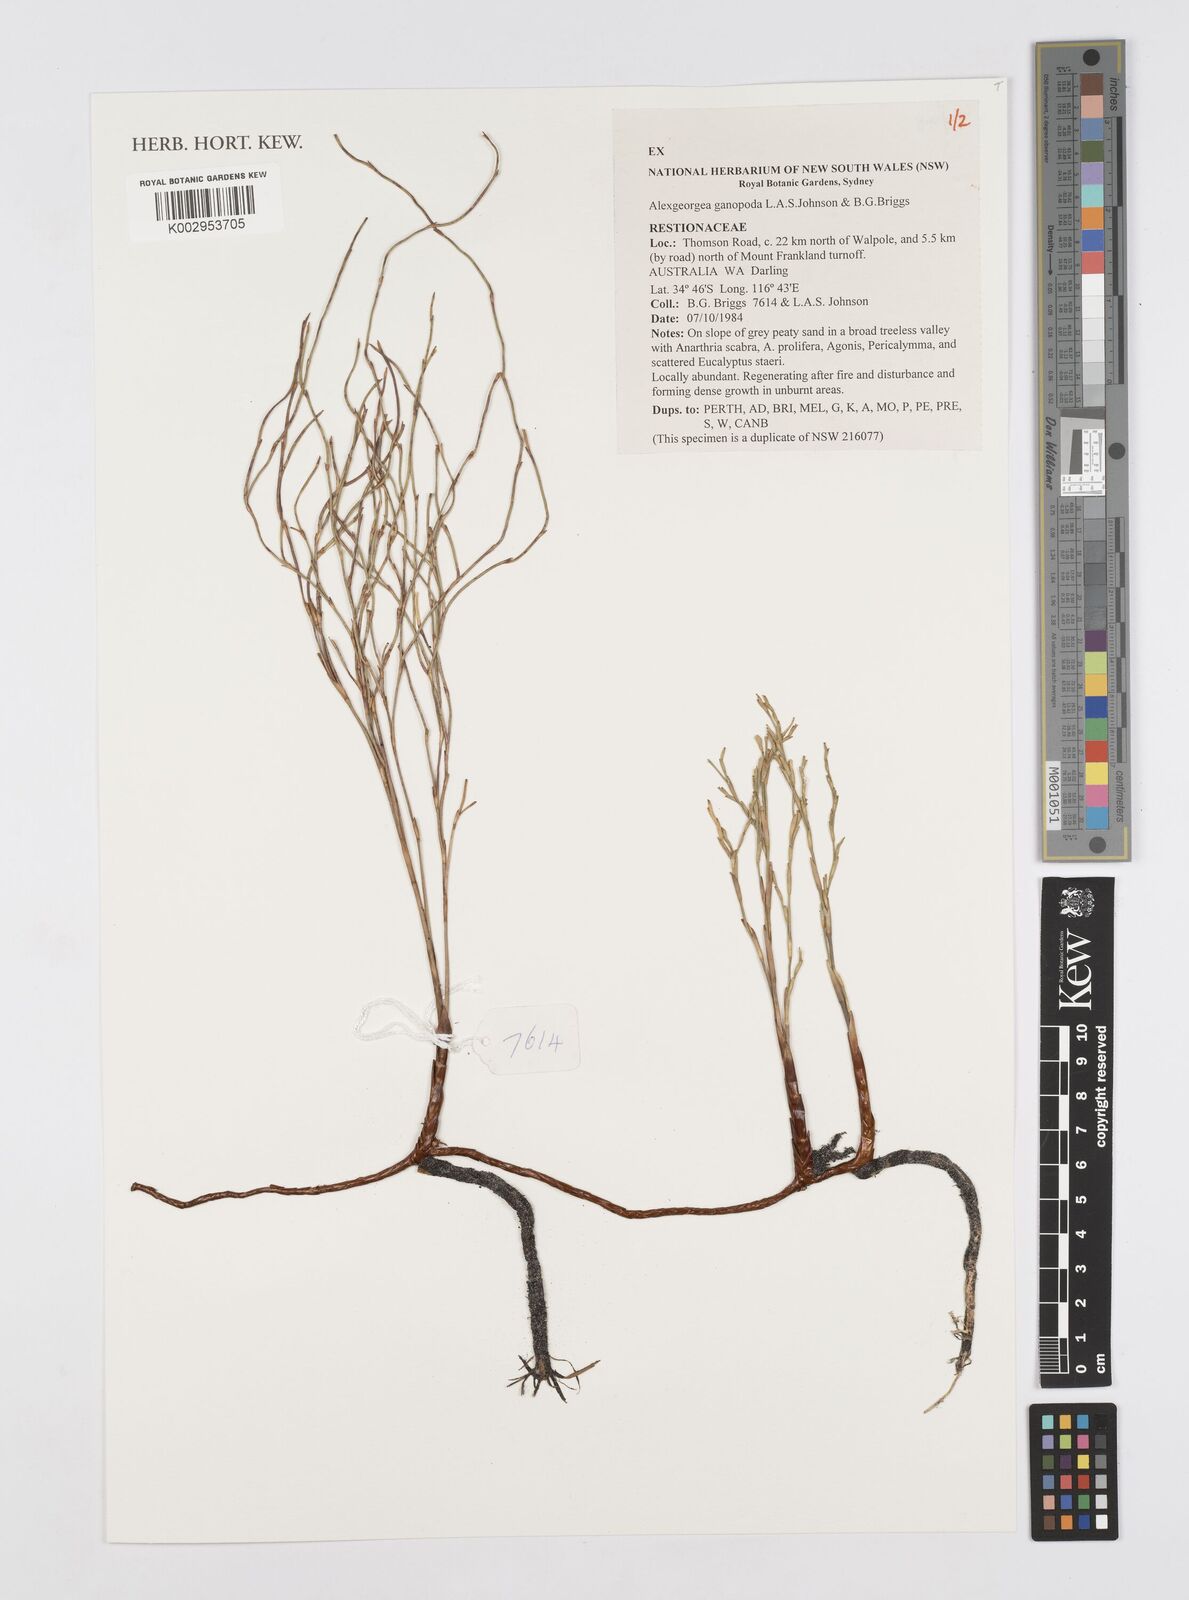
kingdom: Plantae
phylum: Tracheophyta
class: Liliopsida
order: Poales
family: Restionaceae
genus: Alexgeorgea
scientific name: Alexgeorgea ganopoda
